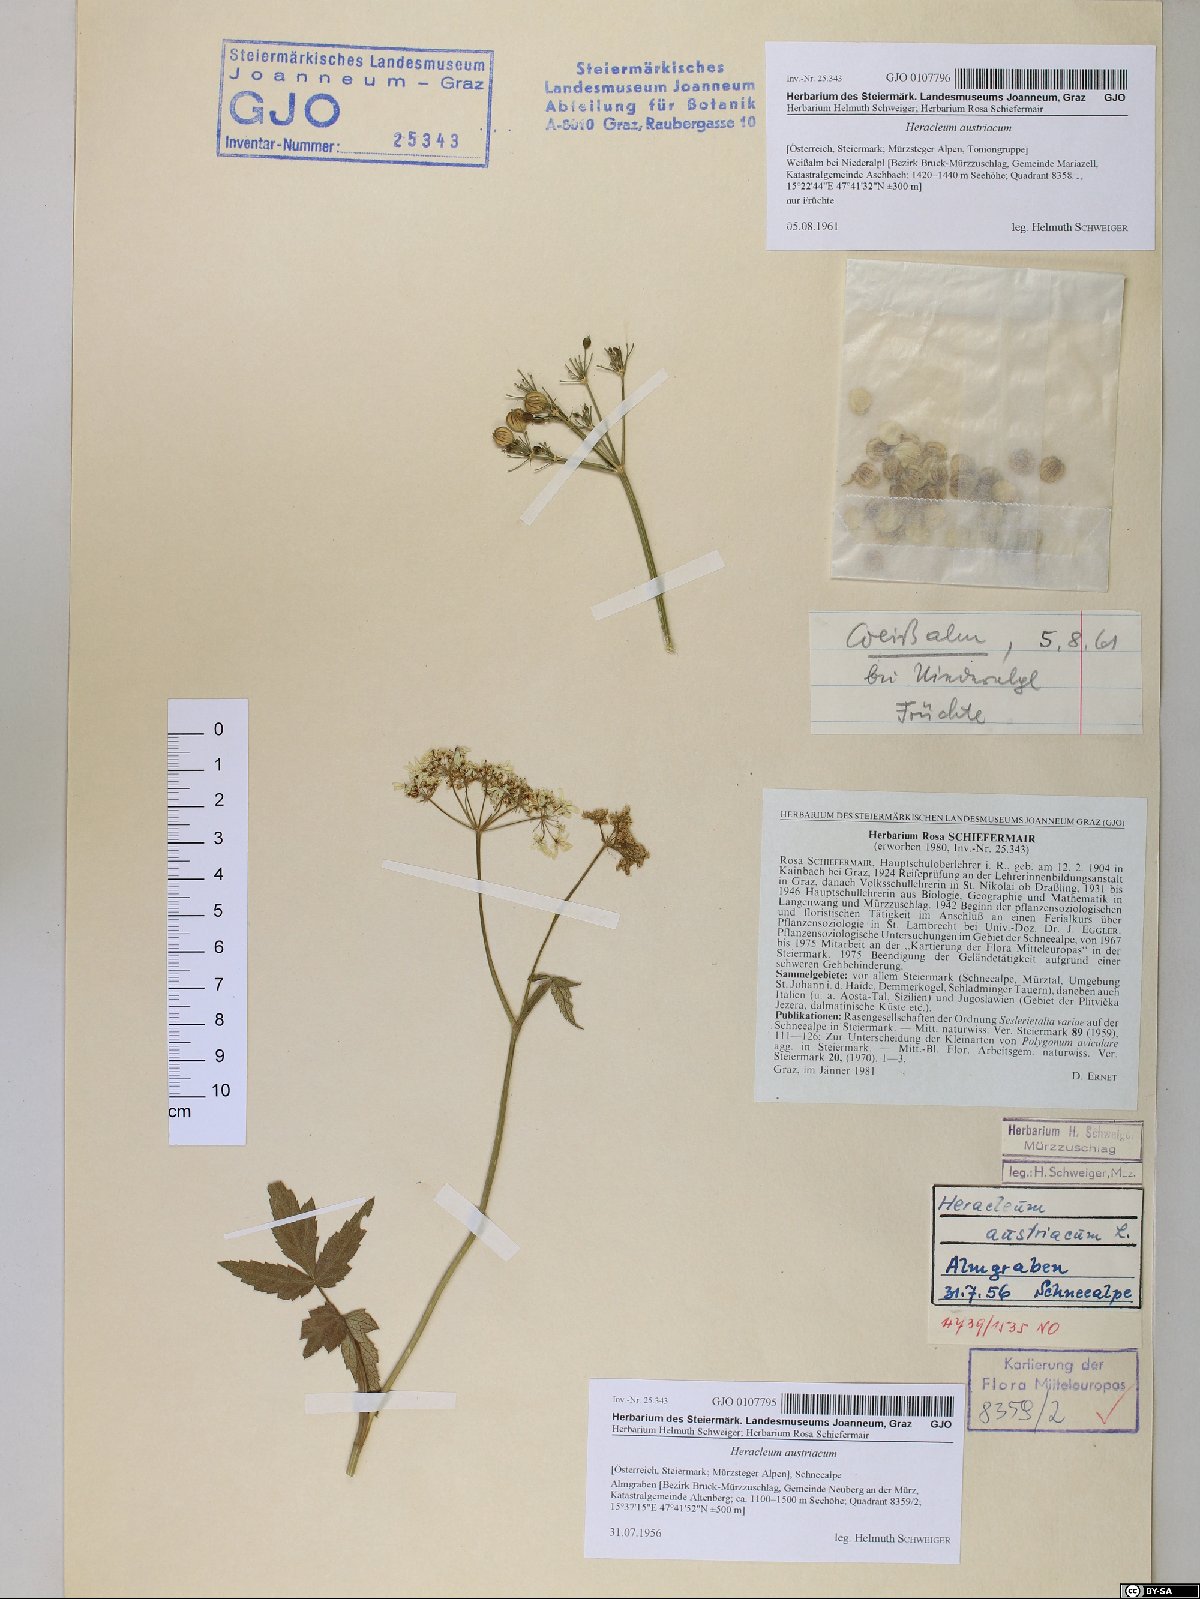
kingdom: Plantae
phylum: Tracheophyta
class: Magnoliopsida
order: Apiales
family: Apiaceae
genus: Heracleum
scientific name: Heracleum austriacum
